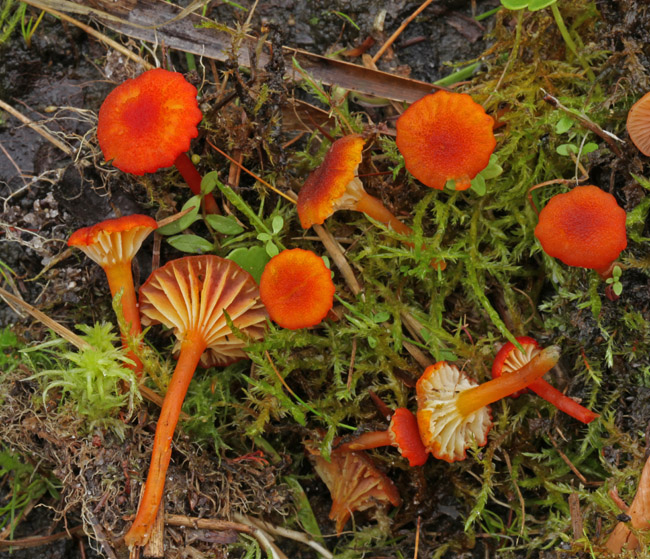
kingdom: Fungi
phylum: Basidiomycota
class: Agaricomycetes
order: Agaricales
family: Hygrophoraceae
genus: Hygrocybe
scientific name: Hygrocybe coccineocrenata
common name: tørvemos-vokshat
